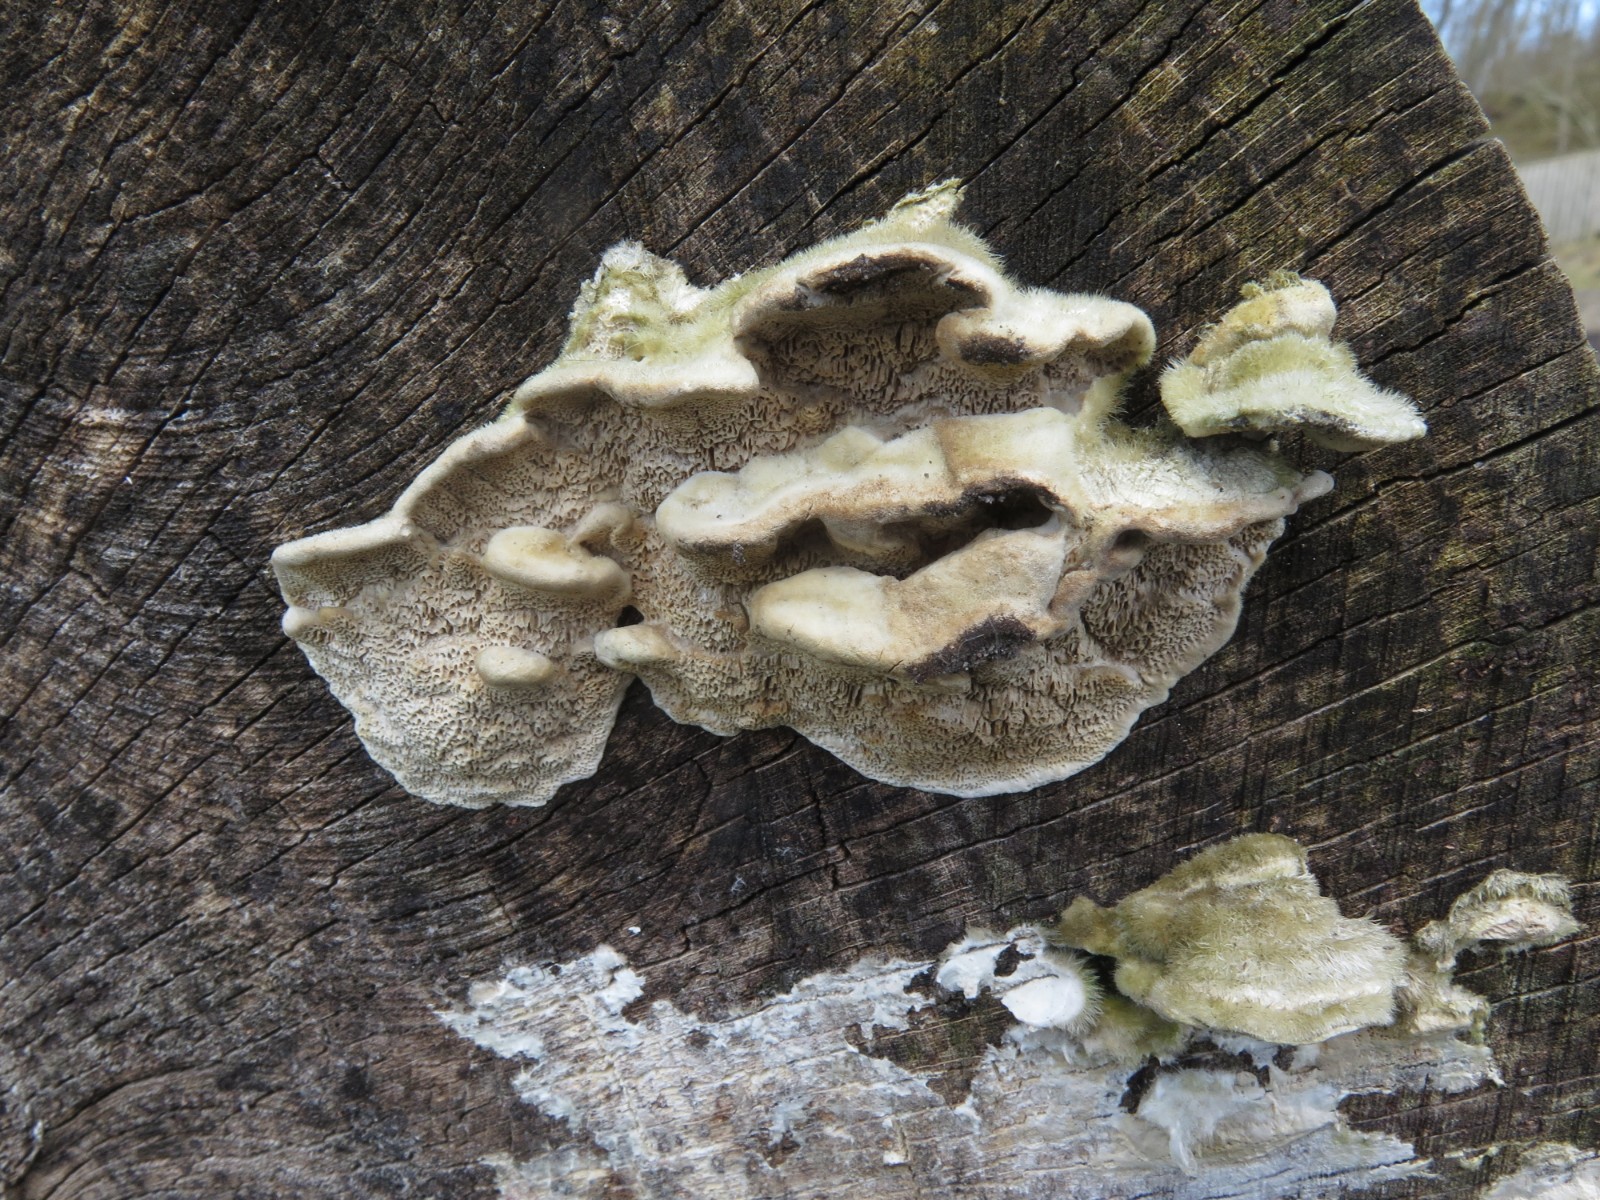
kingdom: Fungi
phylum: Basidiomycota
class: Agaricomycetes
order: Polyporales
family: Polyporaceae
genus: Trametes
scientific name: Trametes hirsuta
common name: håret læderporesvamp
